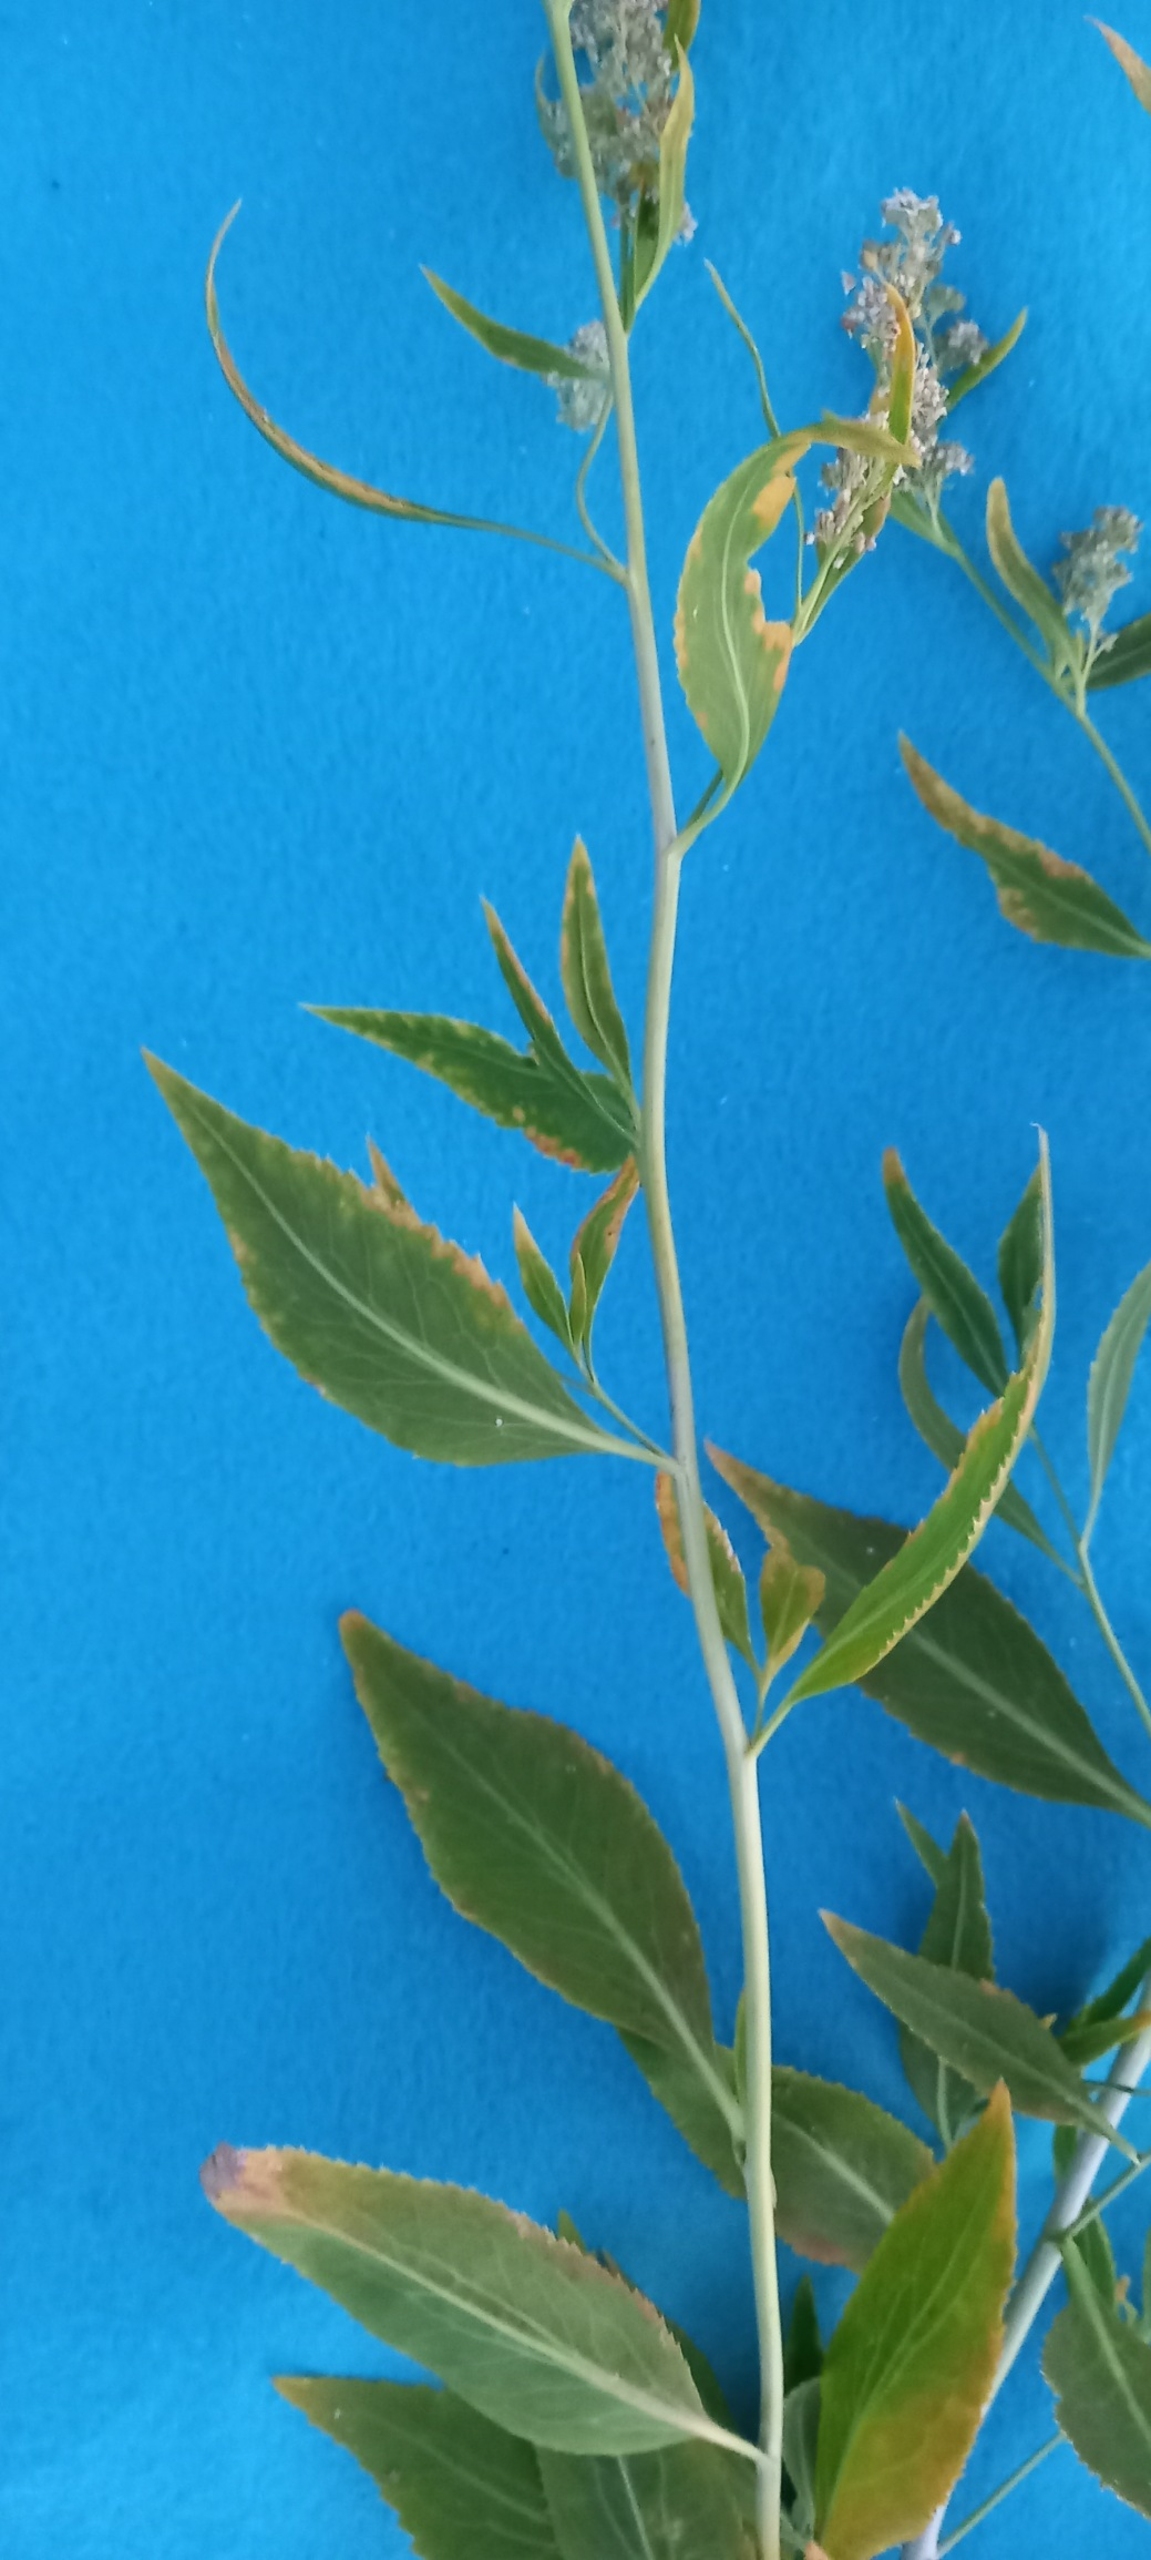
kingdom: Plantae
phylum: Tracheophyta
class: Magnoliopsida
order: Brassicales
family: Brassicaceae
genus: Lepidium
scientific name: Lepidium latifolium
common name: Strand-karse
